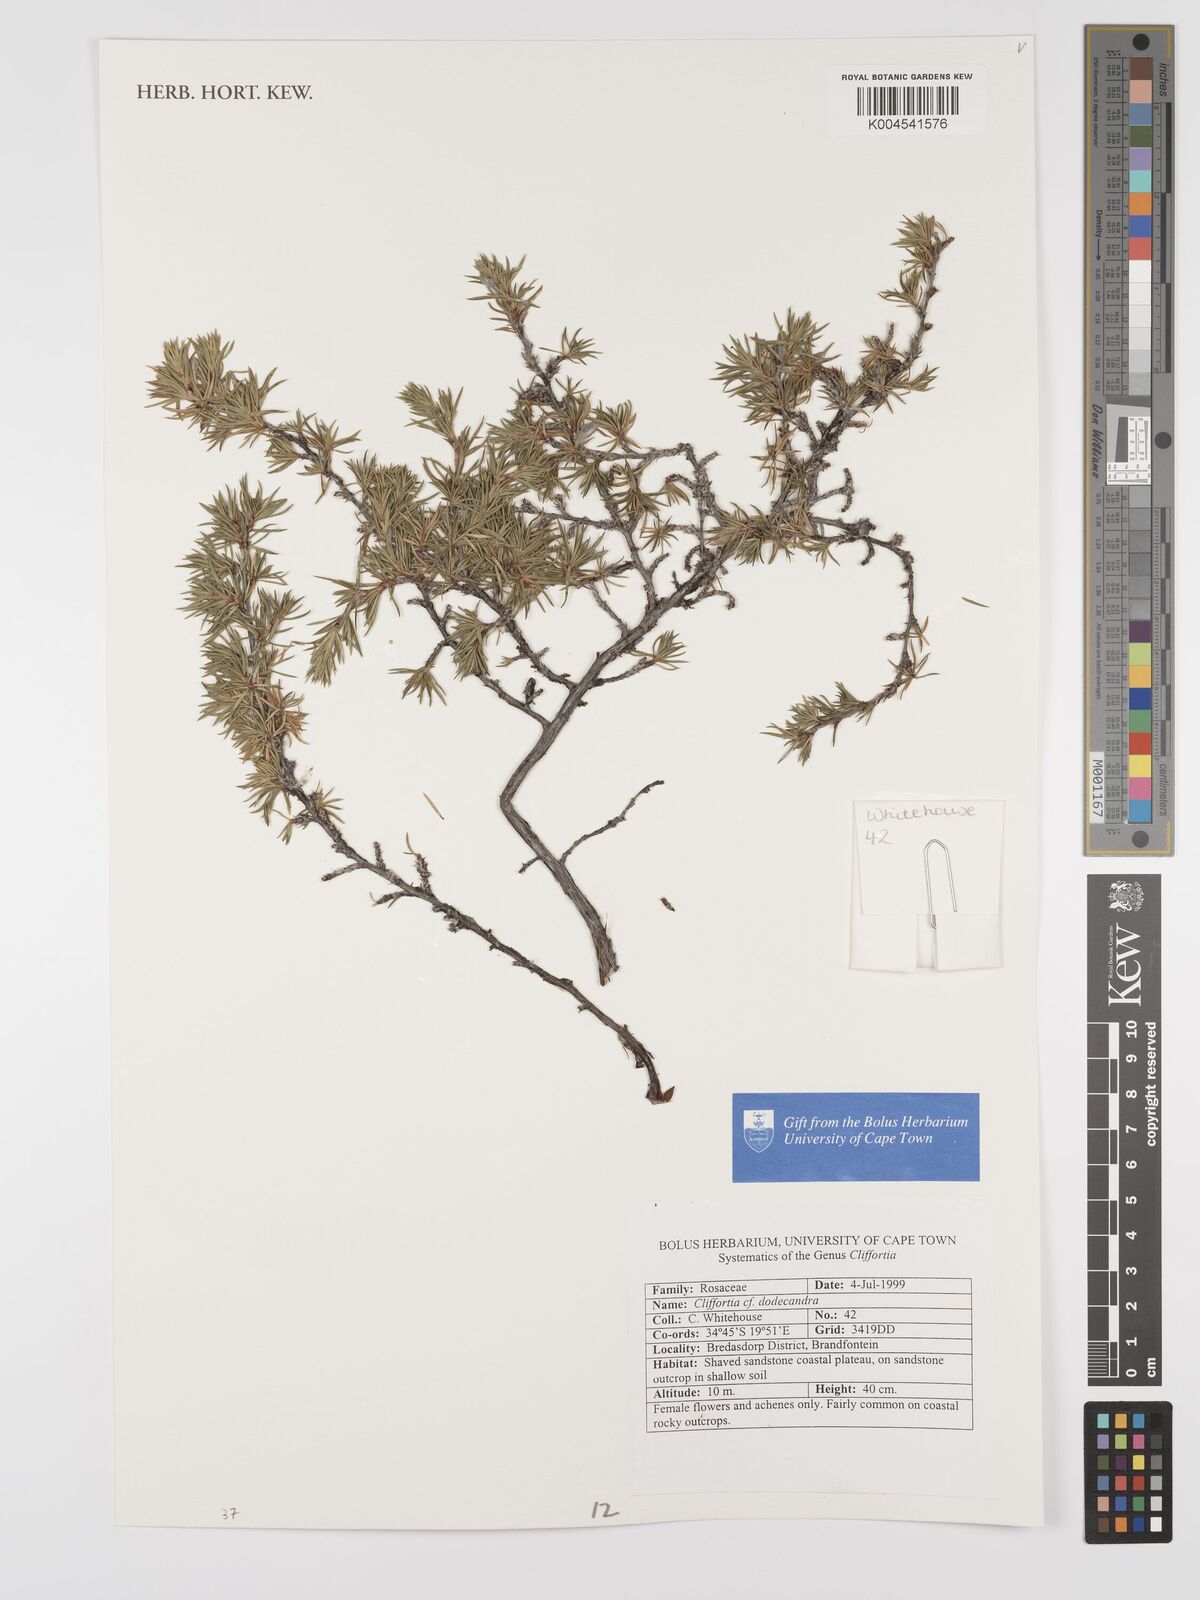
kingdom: Plantae
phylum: Tracheophyta
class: Magnoliopsida
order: Rosales
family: Rosaceae
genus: Cliffortia
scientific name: Cliffortia dodecandra
